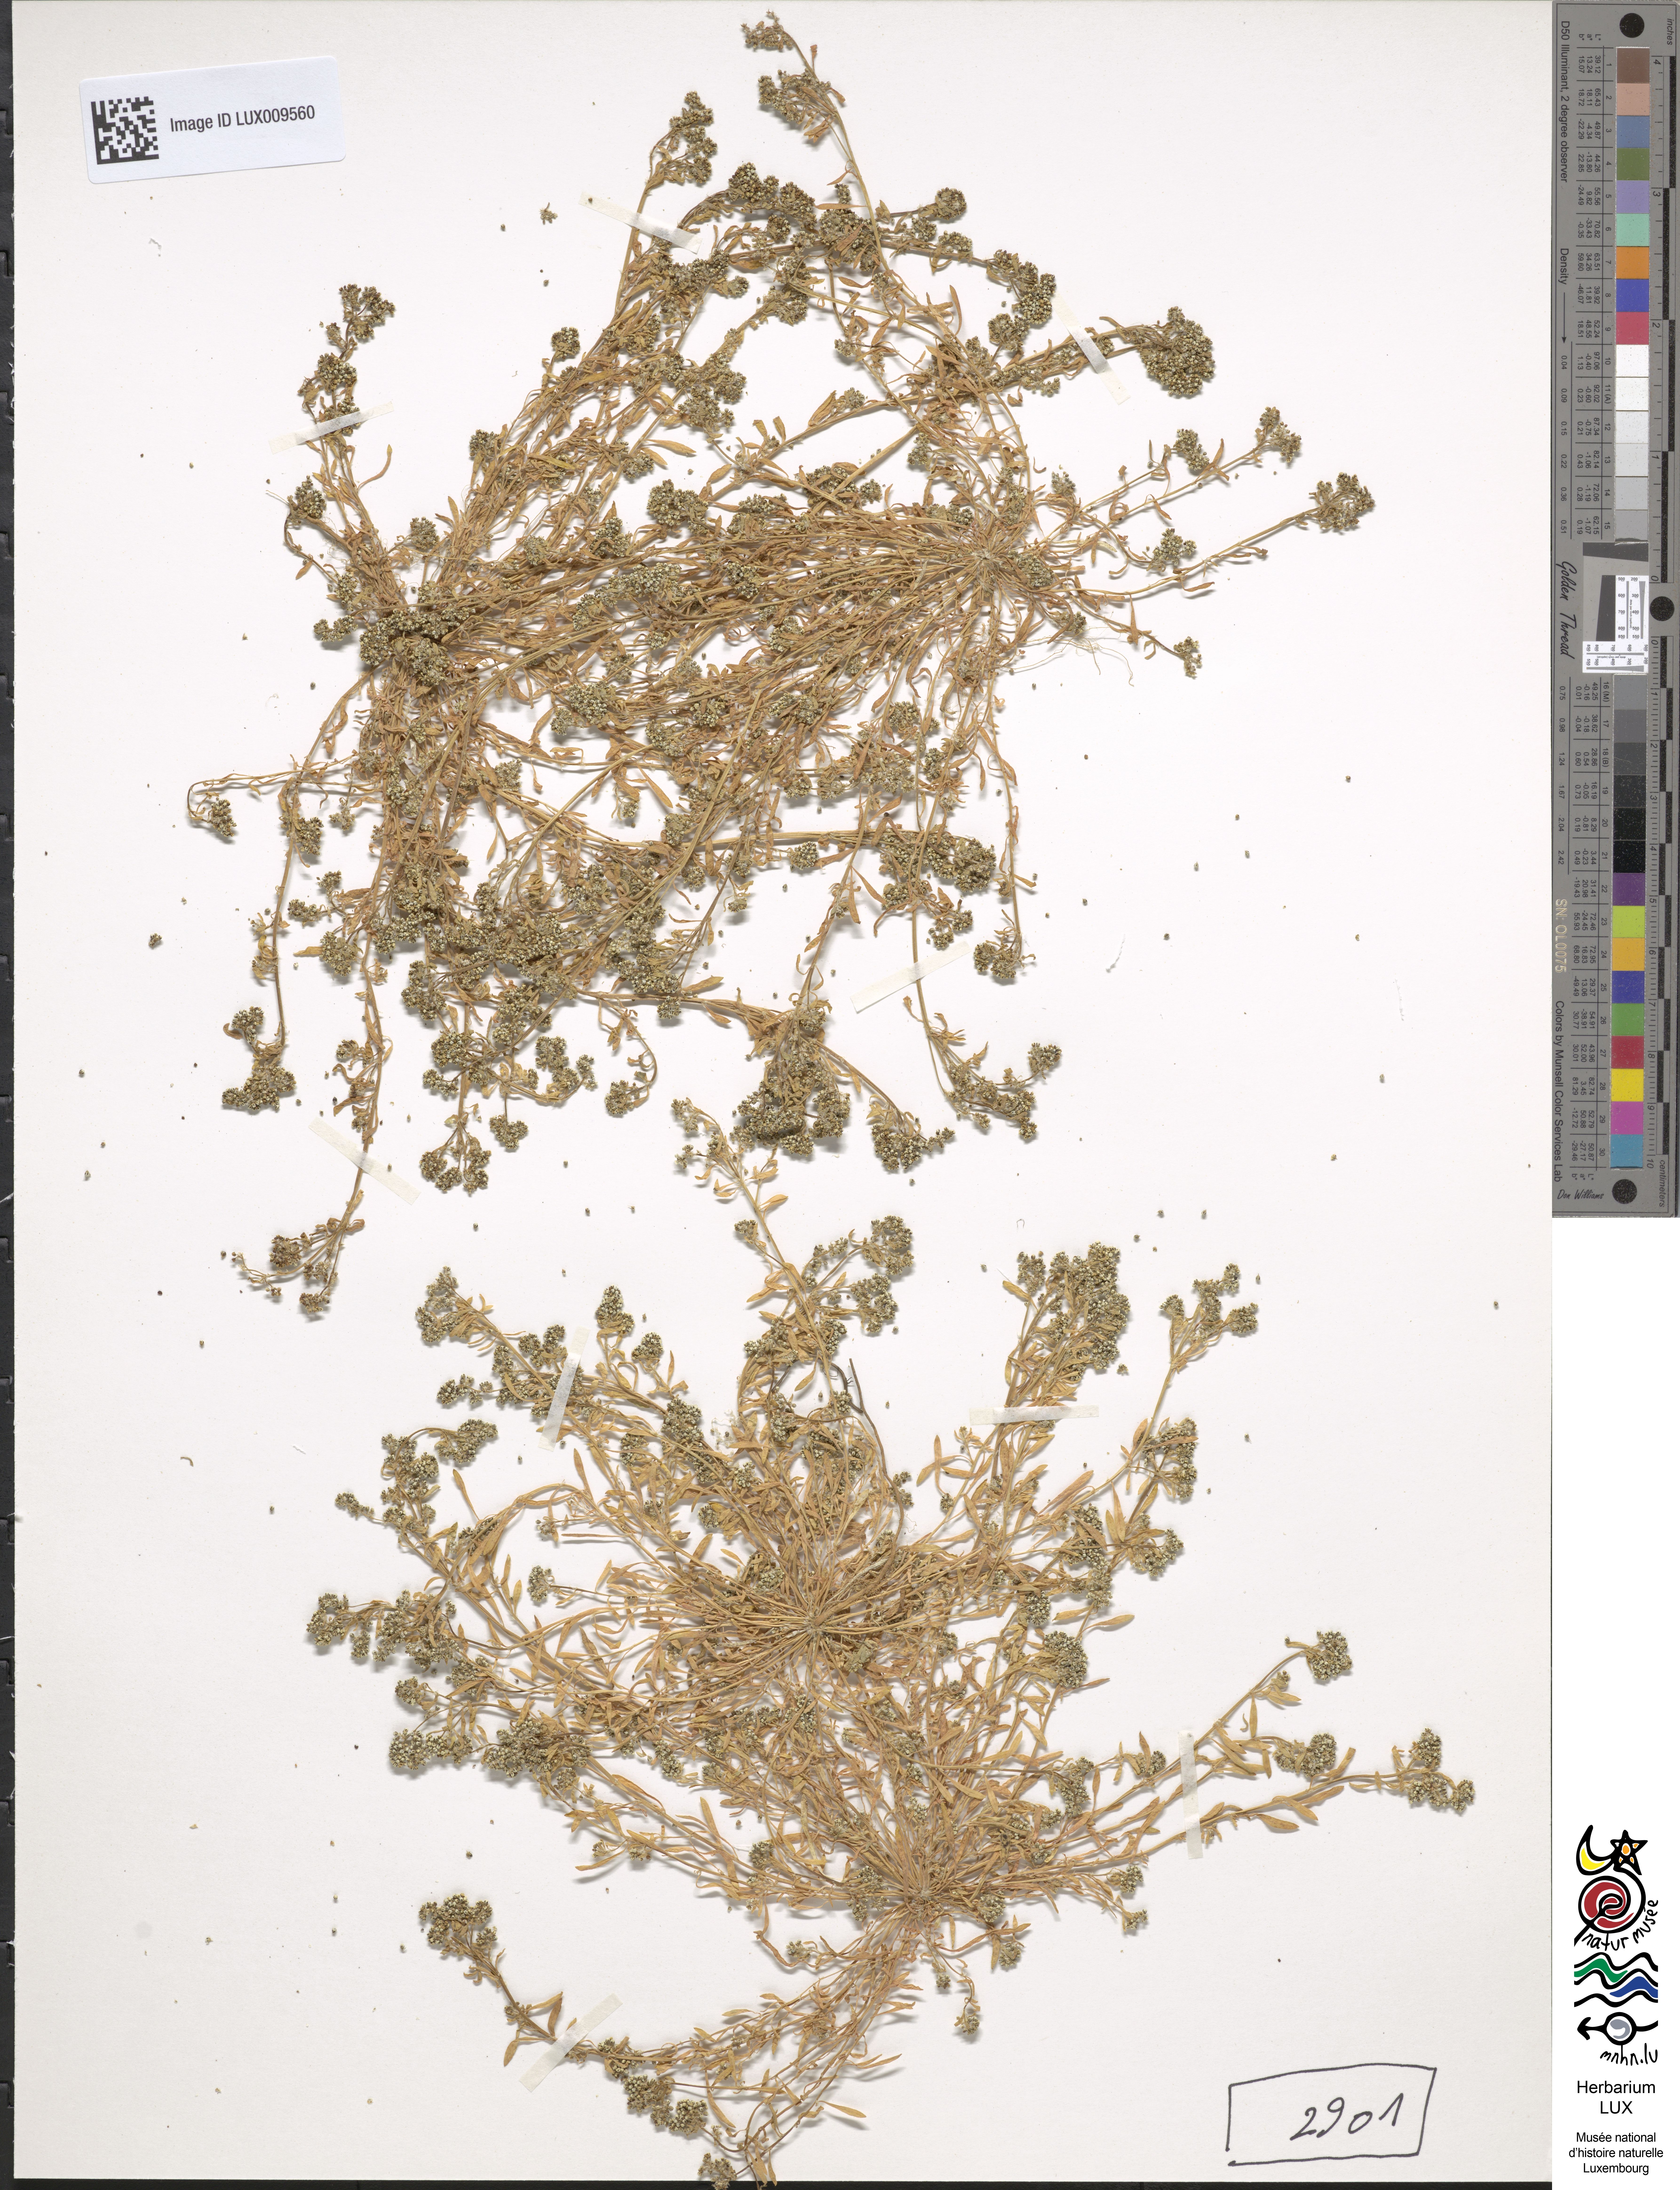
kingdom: Plantae
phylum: Tracheophyta
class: Magnoliopsida
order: Caryophyllales
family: Caryophyllaceae
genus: Corrigiola
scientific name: Corrigiola litoralis
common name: Strapwort
